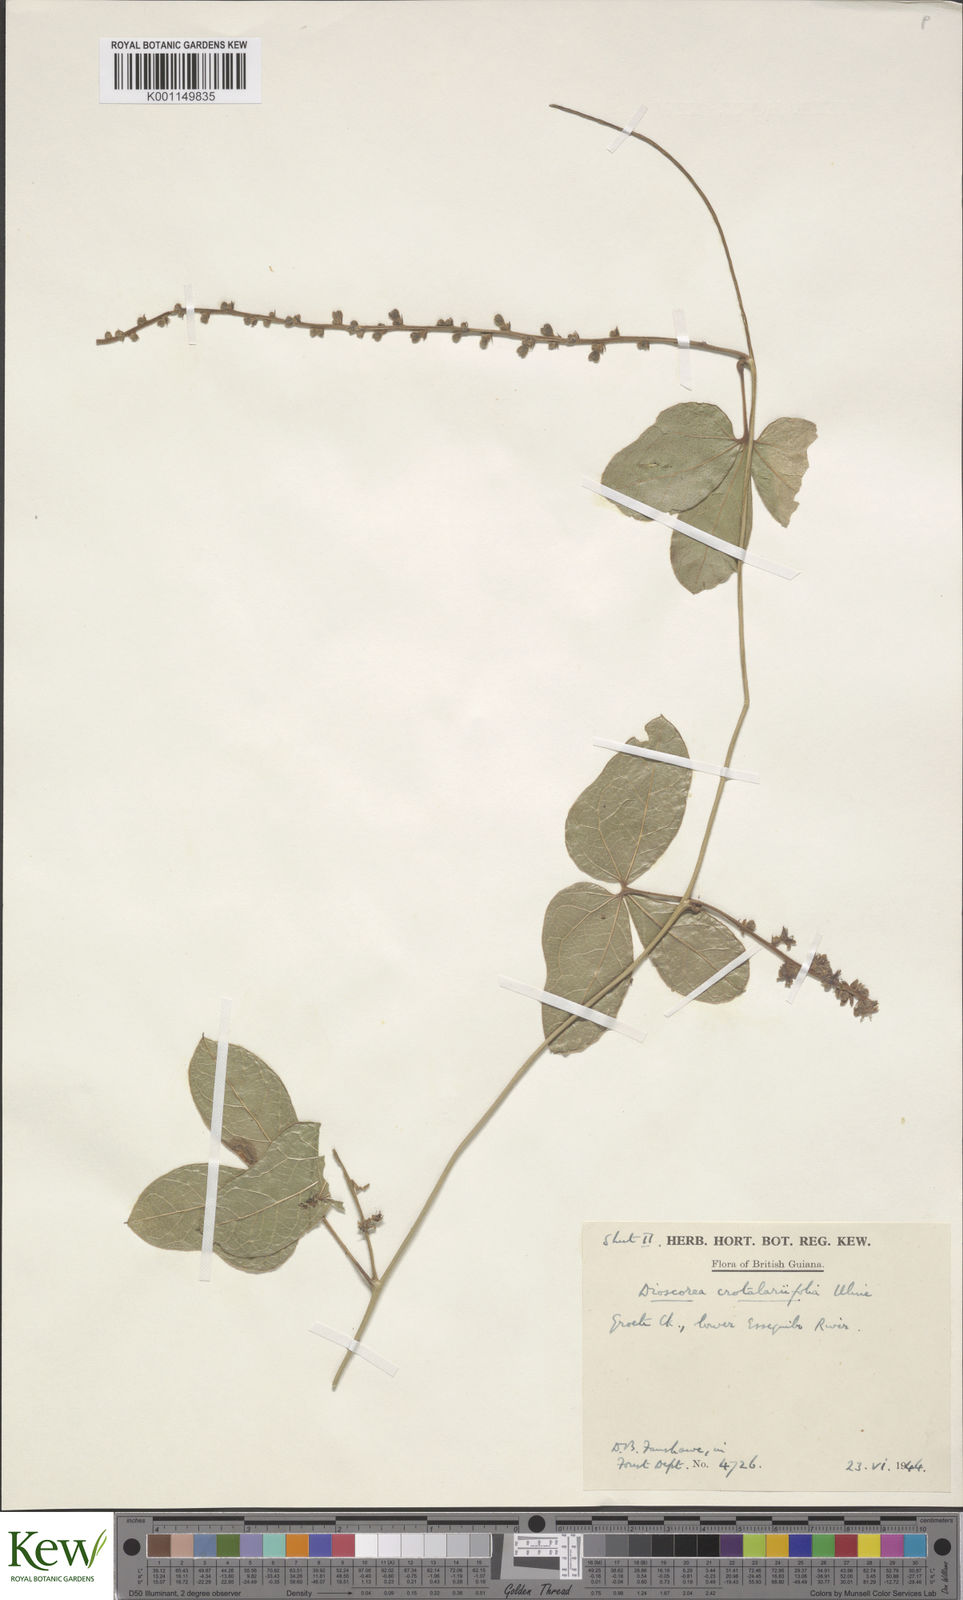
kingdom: Plantae
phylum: Tracheophyta
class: Liliopsida
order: Dioscoreales
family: Dioscoreaceae
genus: Dioscorea
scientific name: Dioscorea crotalariifolia
